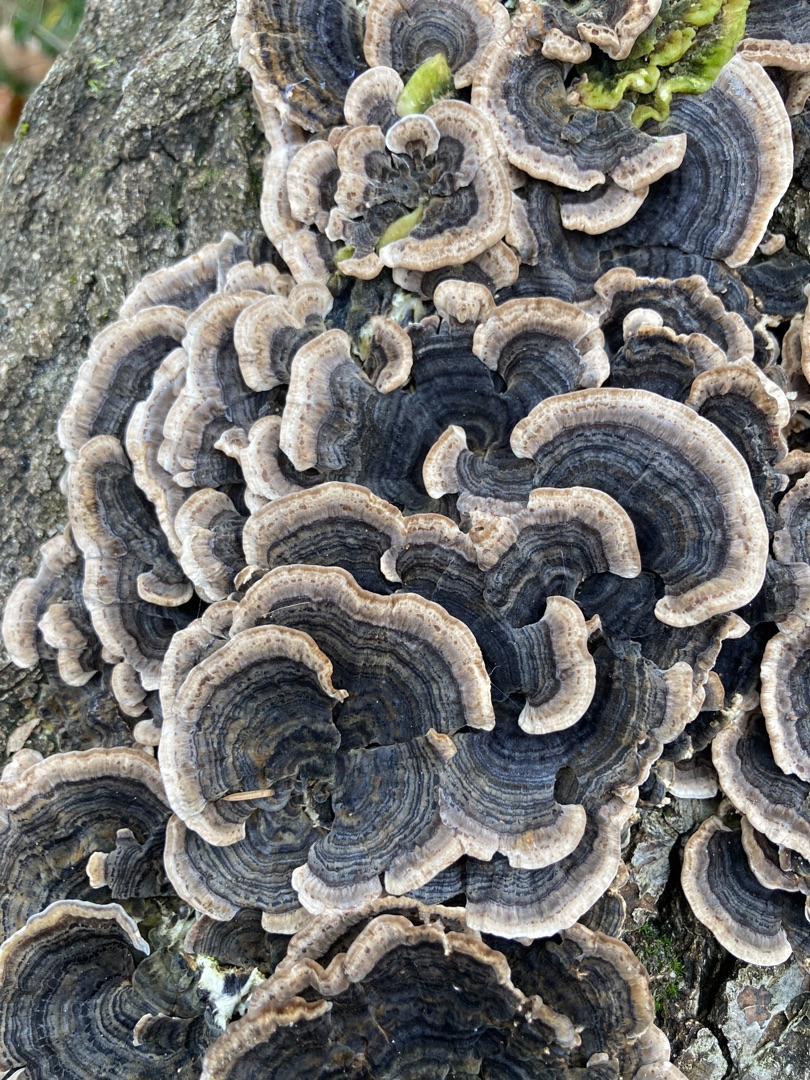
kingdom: Fungi
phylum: Basidiomycota
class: Agaricomycetes
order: Polyporales
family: Polyporaceae
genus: Trametes
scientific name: Trametes versicolor
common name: Broget læderporesvamp
